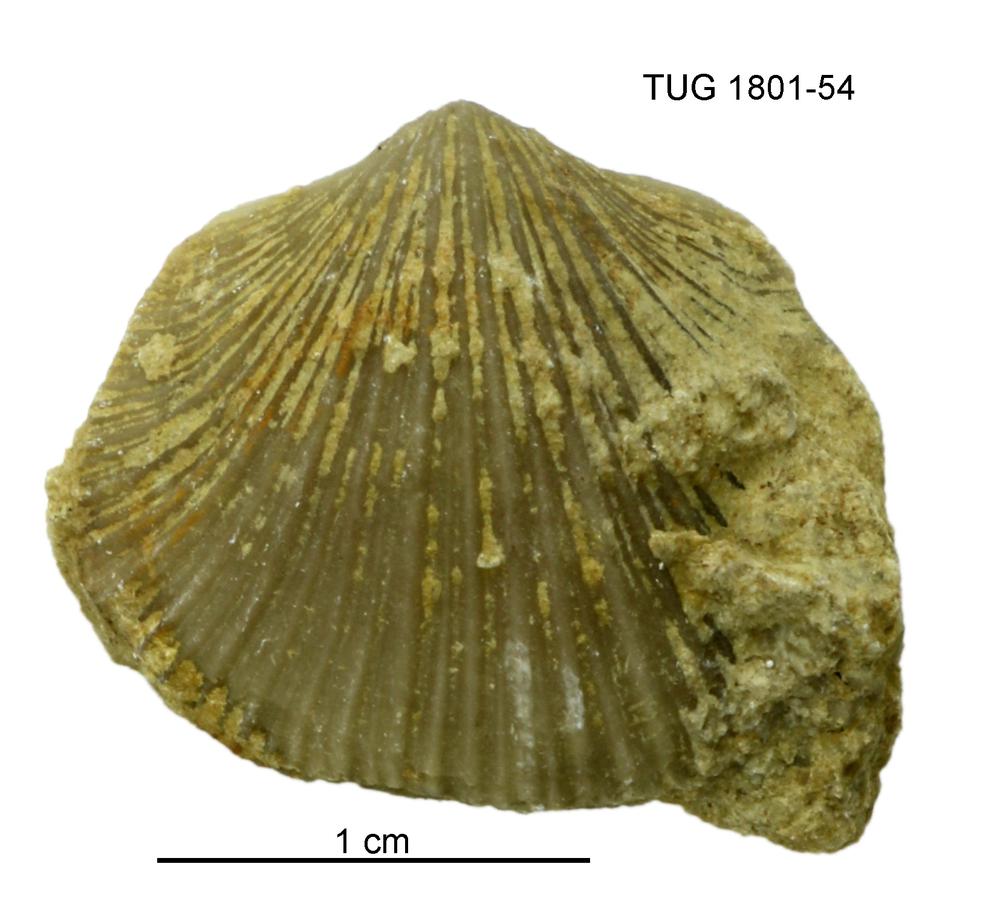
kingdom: Animalia
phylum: Brachiopoda
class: Rhynchonellata
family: Harknessellidae
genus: Horderleyella
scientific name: Horderleyella
